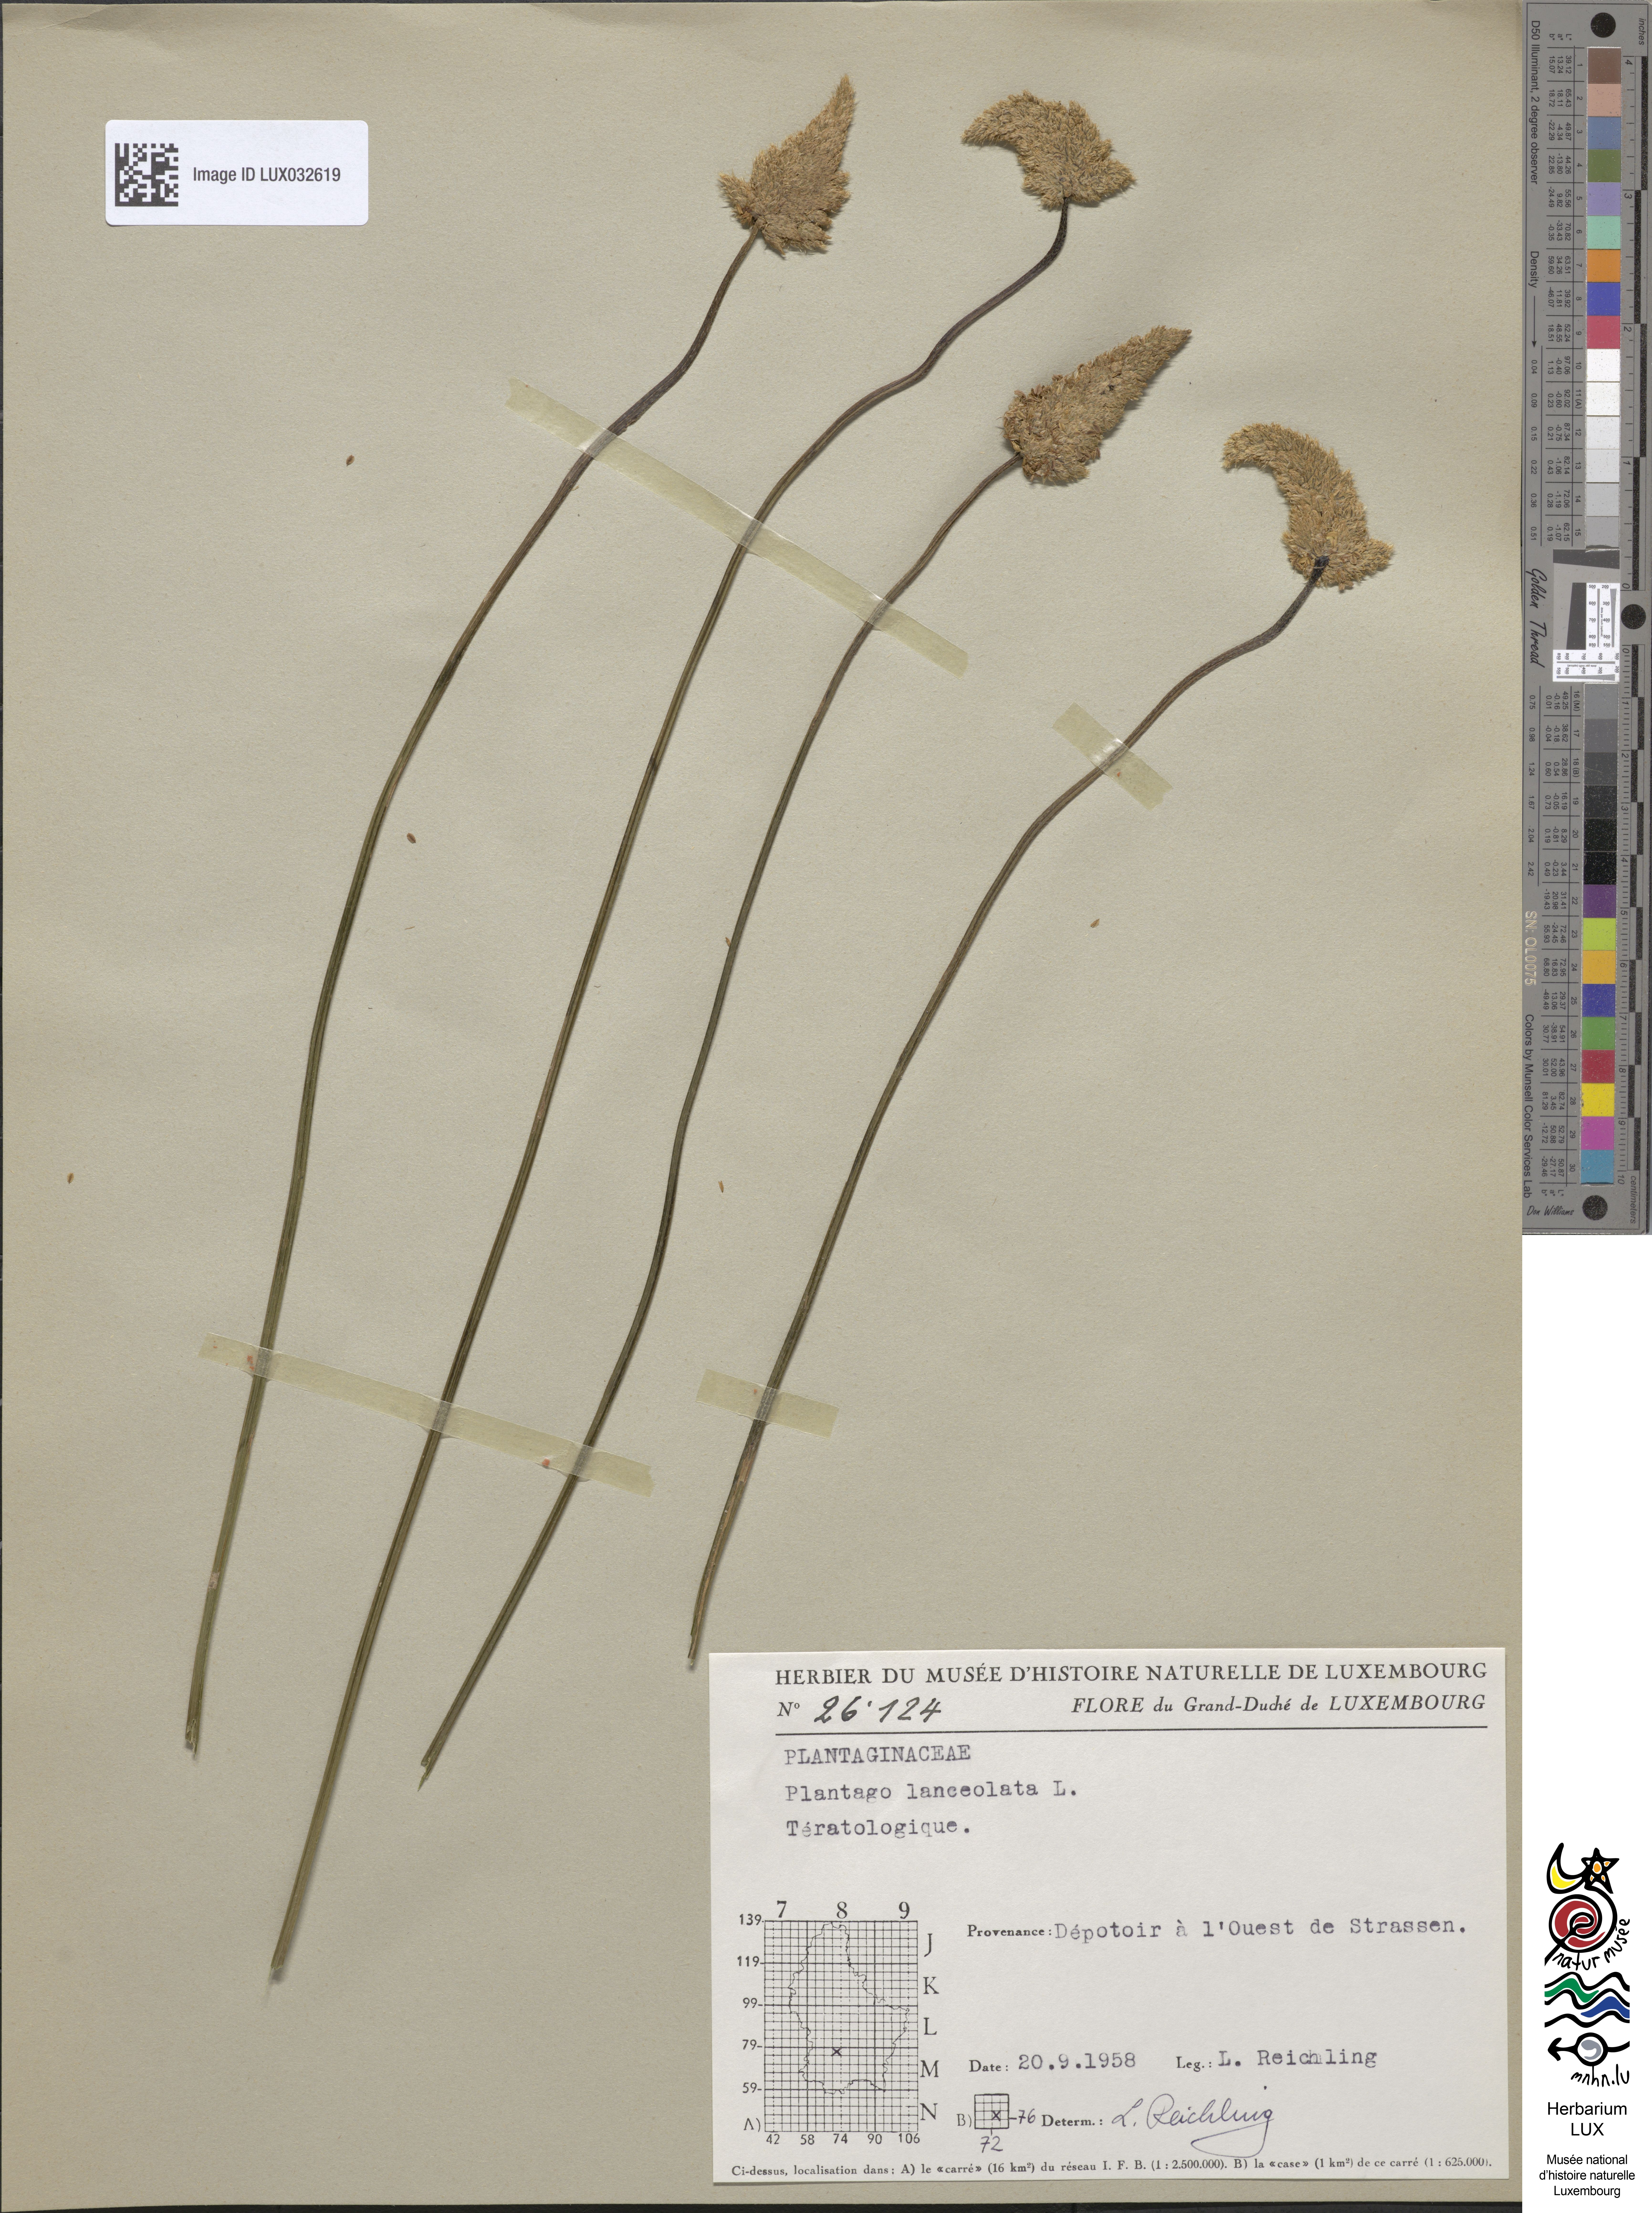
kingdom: Plantae
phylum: Tracheophyta
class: Magnoliopsida
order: Lamiales
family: Plantaginaceae
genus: Plantago
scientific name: Plantago lanceolata
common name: Ribwort plantain
